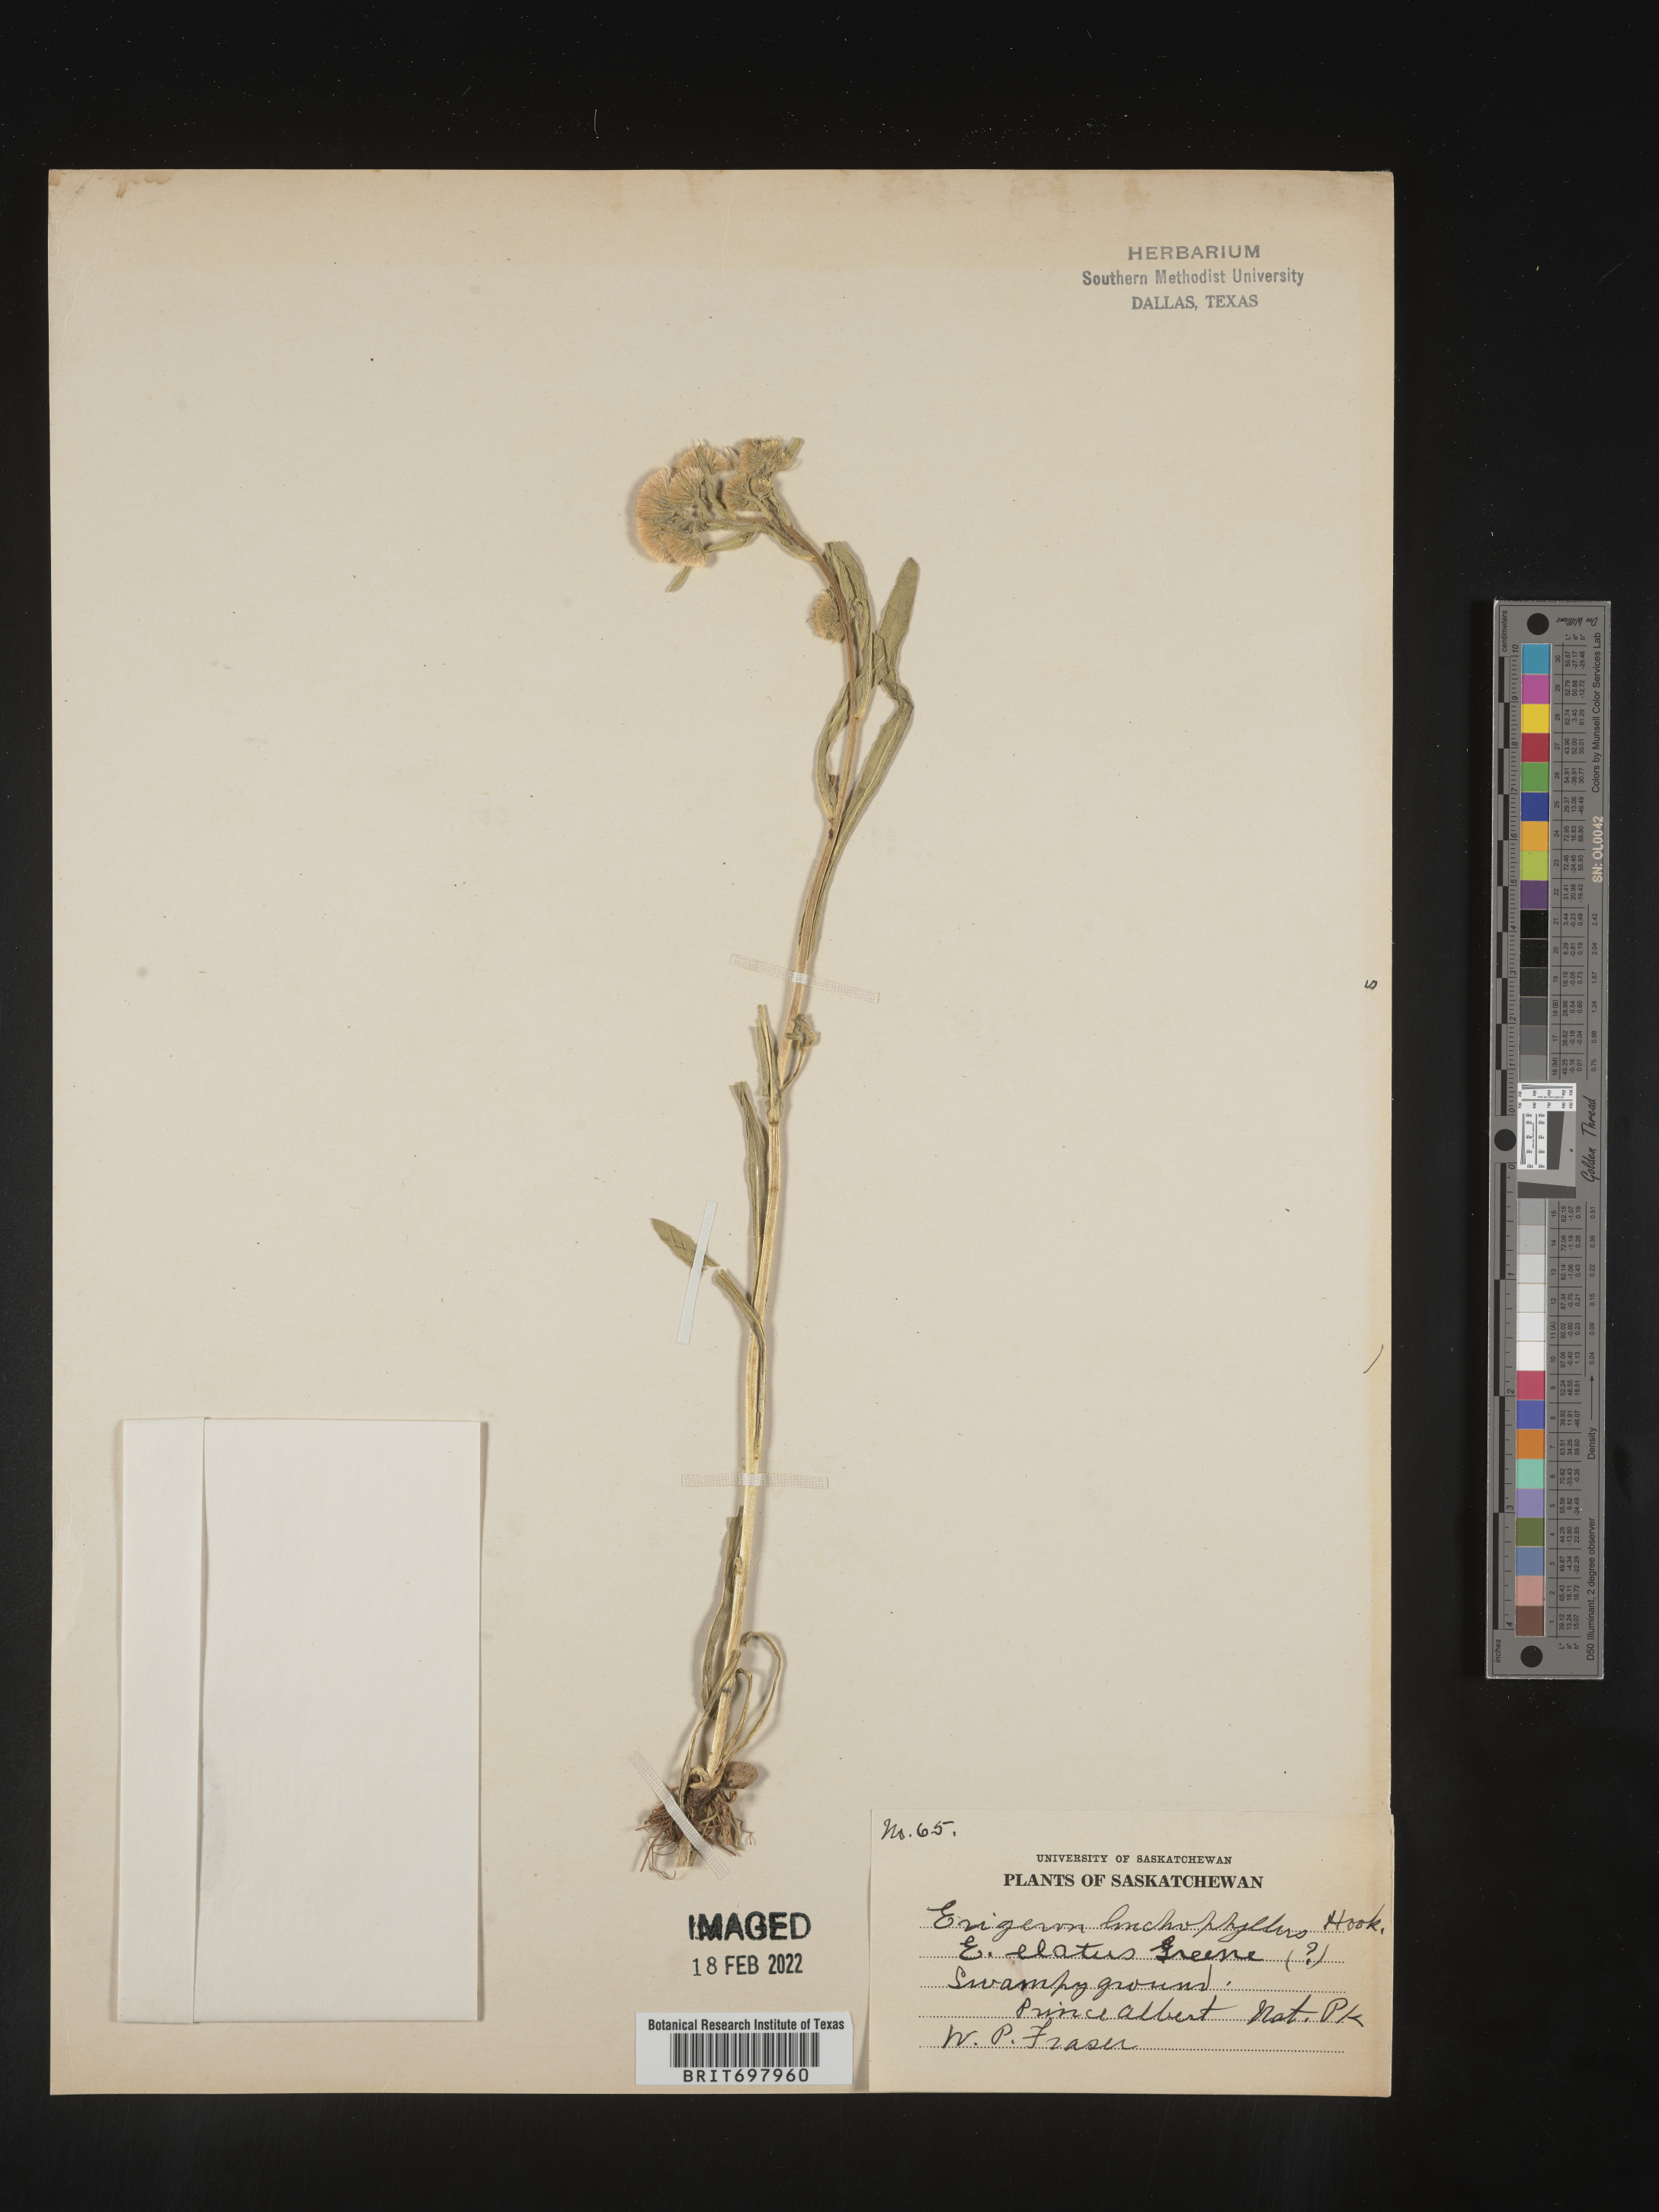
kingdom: Plantae
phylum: Tracheophyta
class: Magnoliopsida
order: Asterales
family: Asteraceae
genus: Erigeron
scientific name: Erigeron lonchophyllus
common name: Short-ray fleabane
